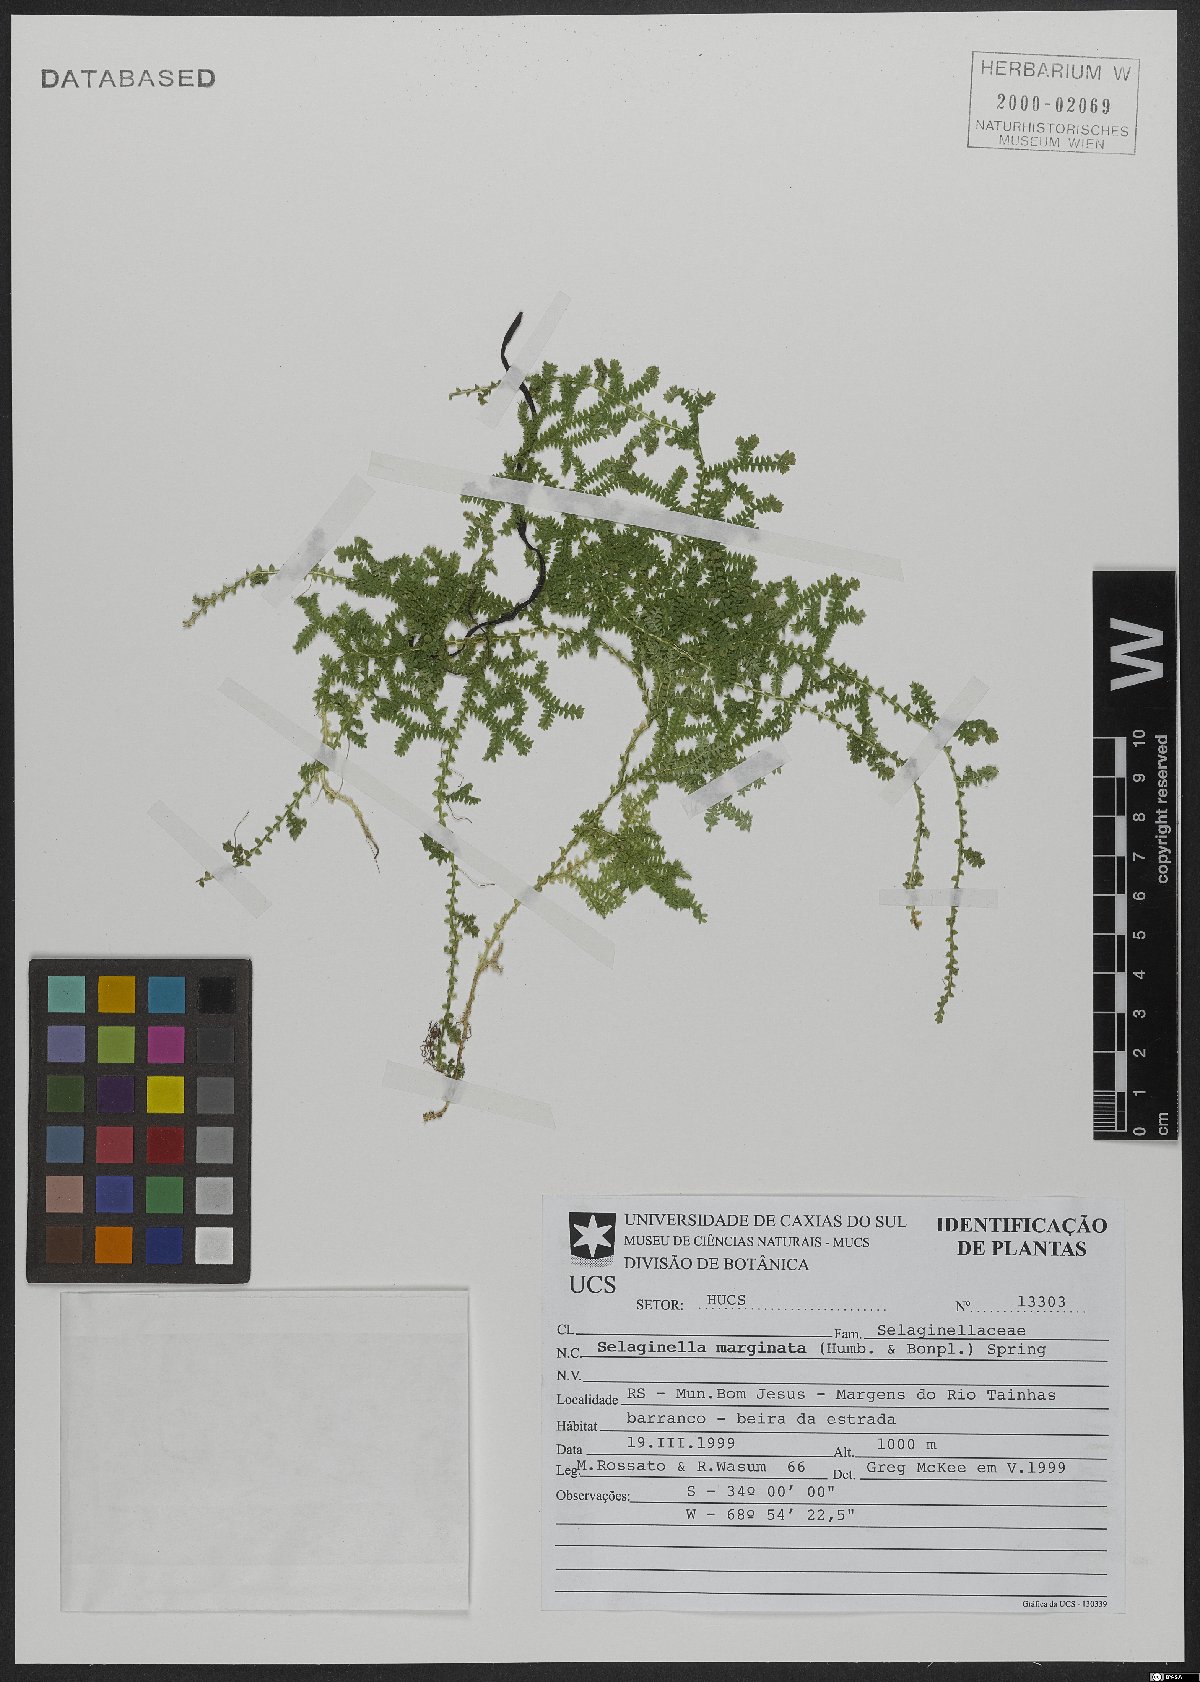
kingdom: Plantae
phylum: Tracheophyta
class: Lycopodiopsida
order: Selaginellales
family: Selaginellaceae
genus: Selaginella
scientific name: Selaginella marginata
